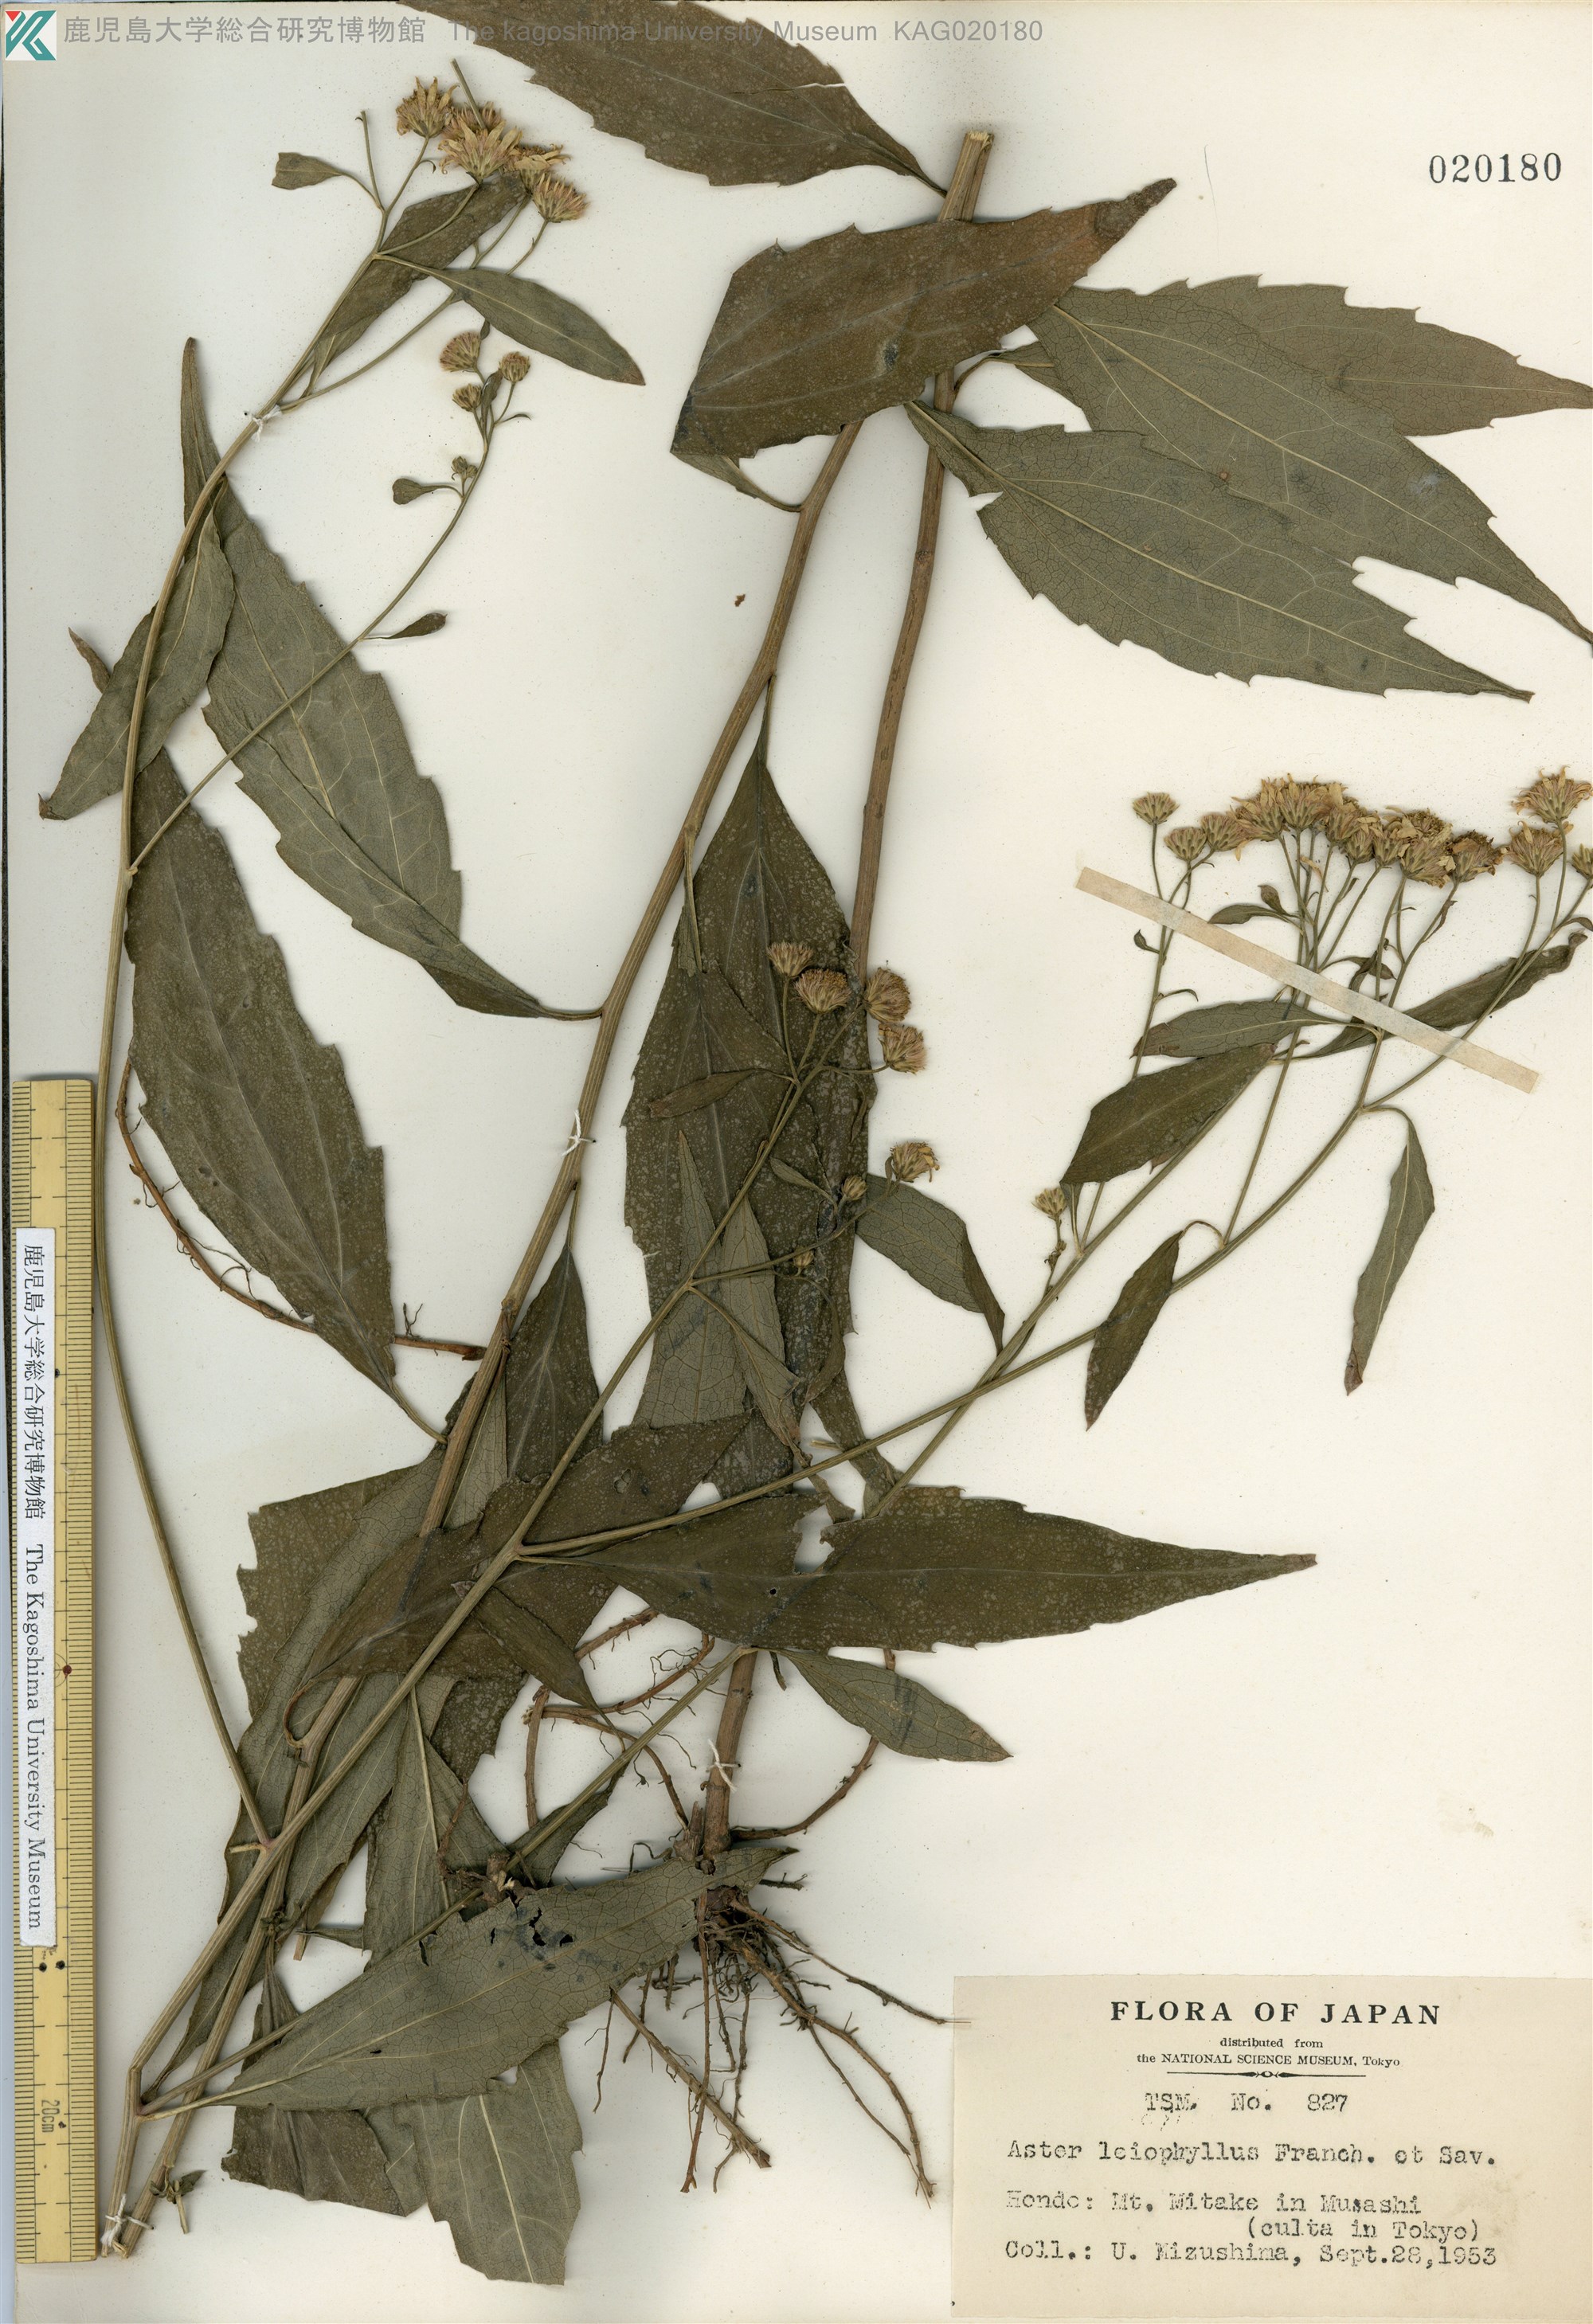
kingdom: Plantae
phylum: Tracheophyta
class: Magnoliopsida
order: Asterales
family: Asteraceae
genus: Aster
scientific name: Aster ageratoides
